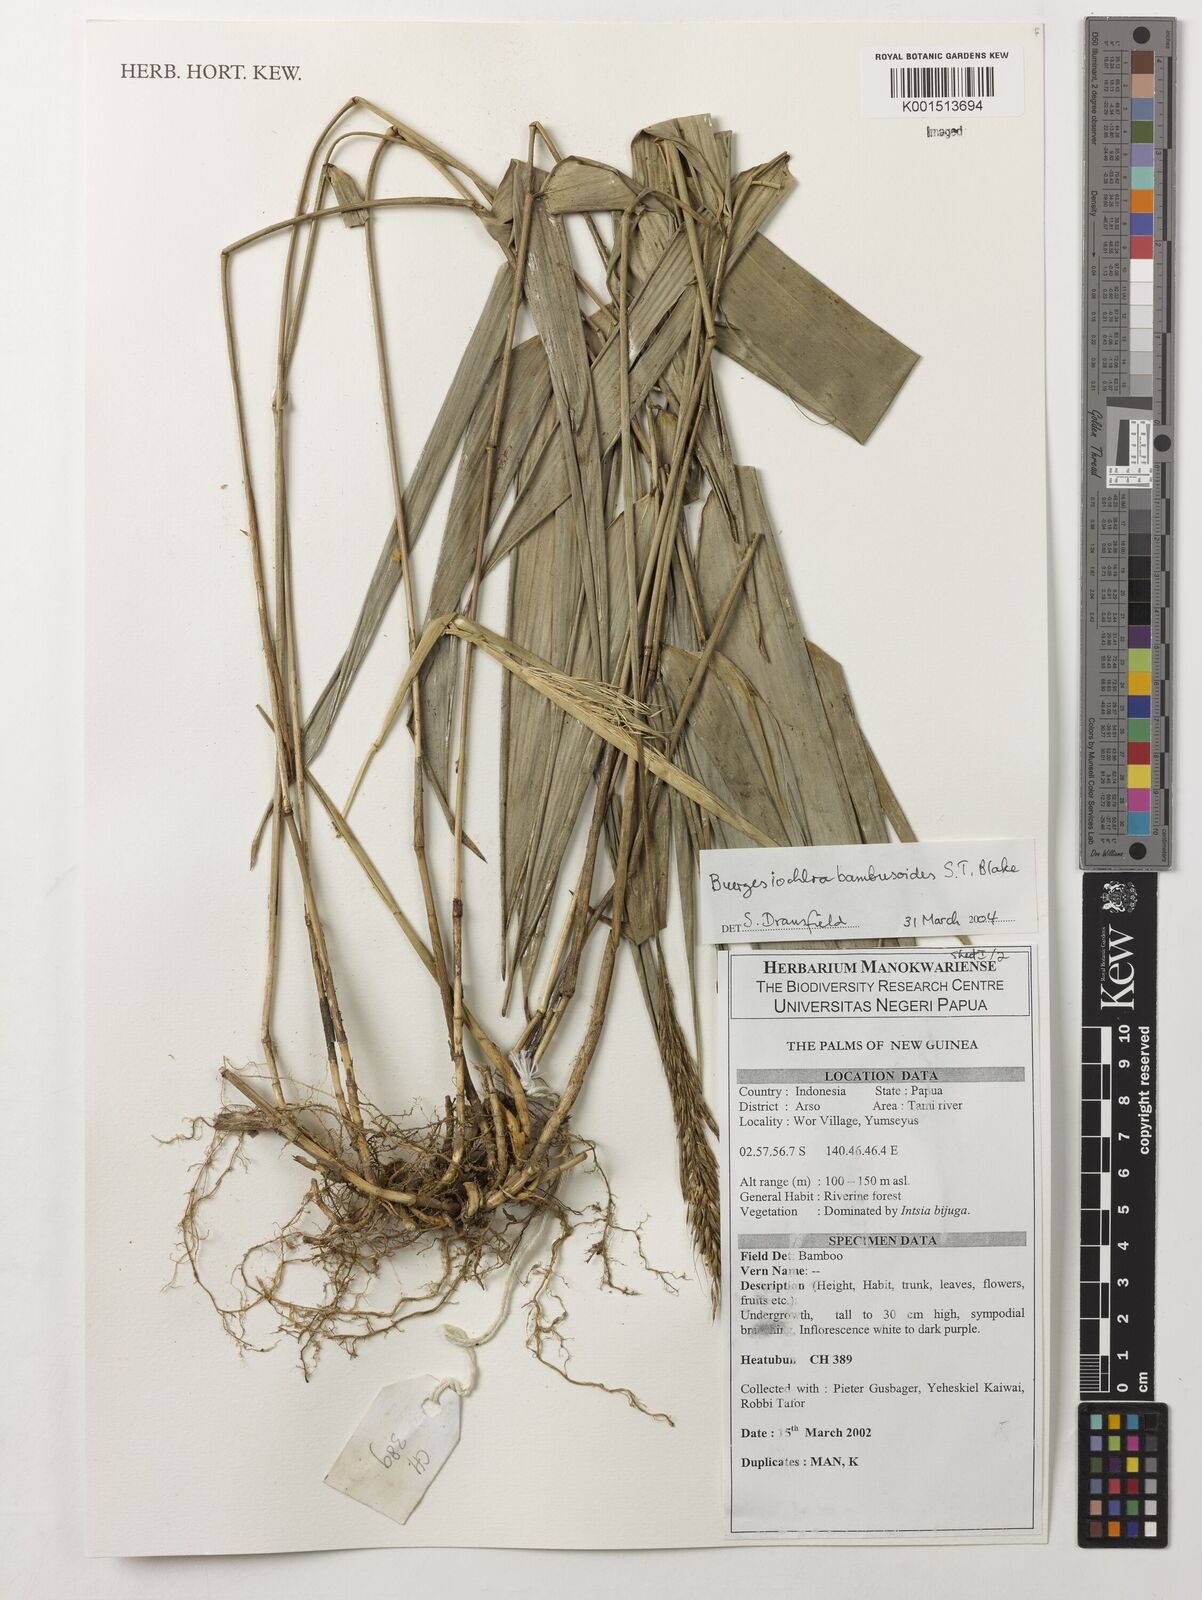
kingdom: Plantae
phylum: Tracheophyta
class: Liliopsida
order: Poales
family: Poaceae
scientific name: Poaceae
